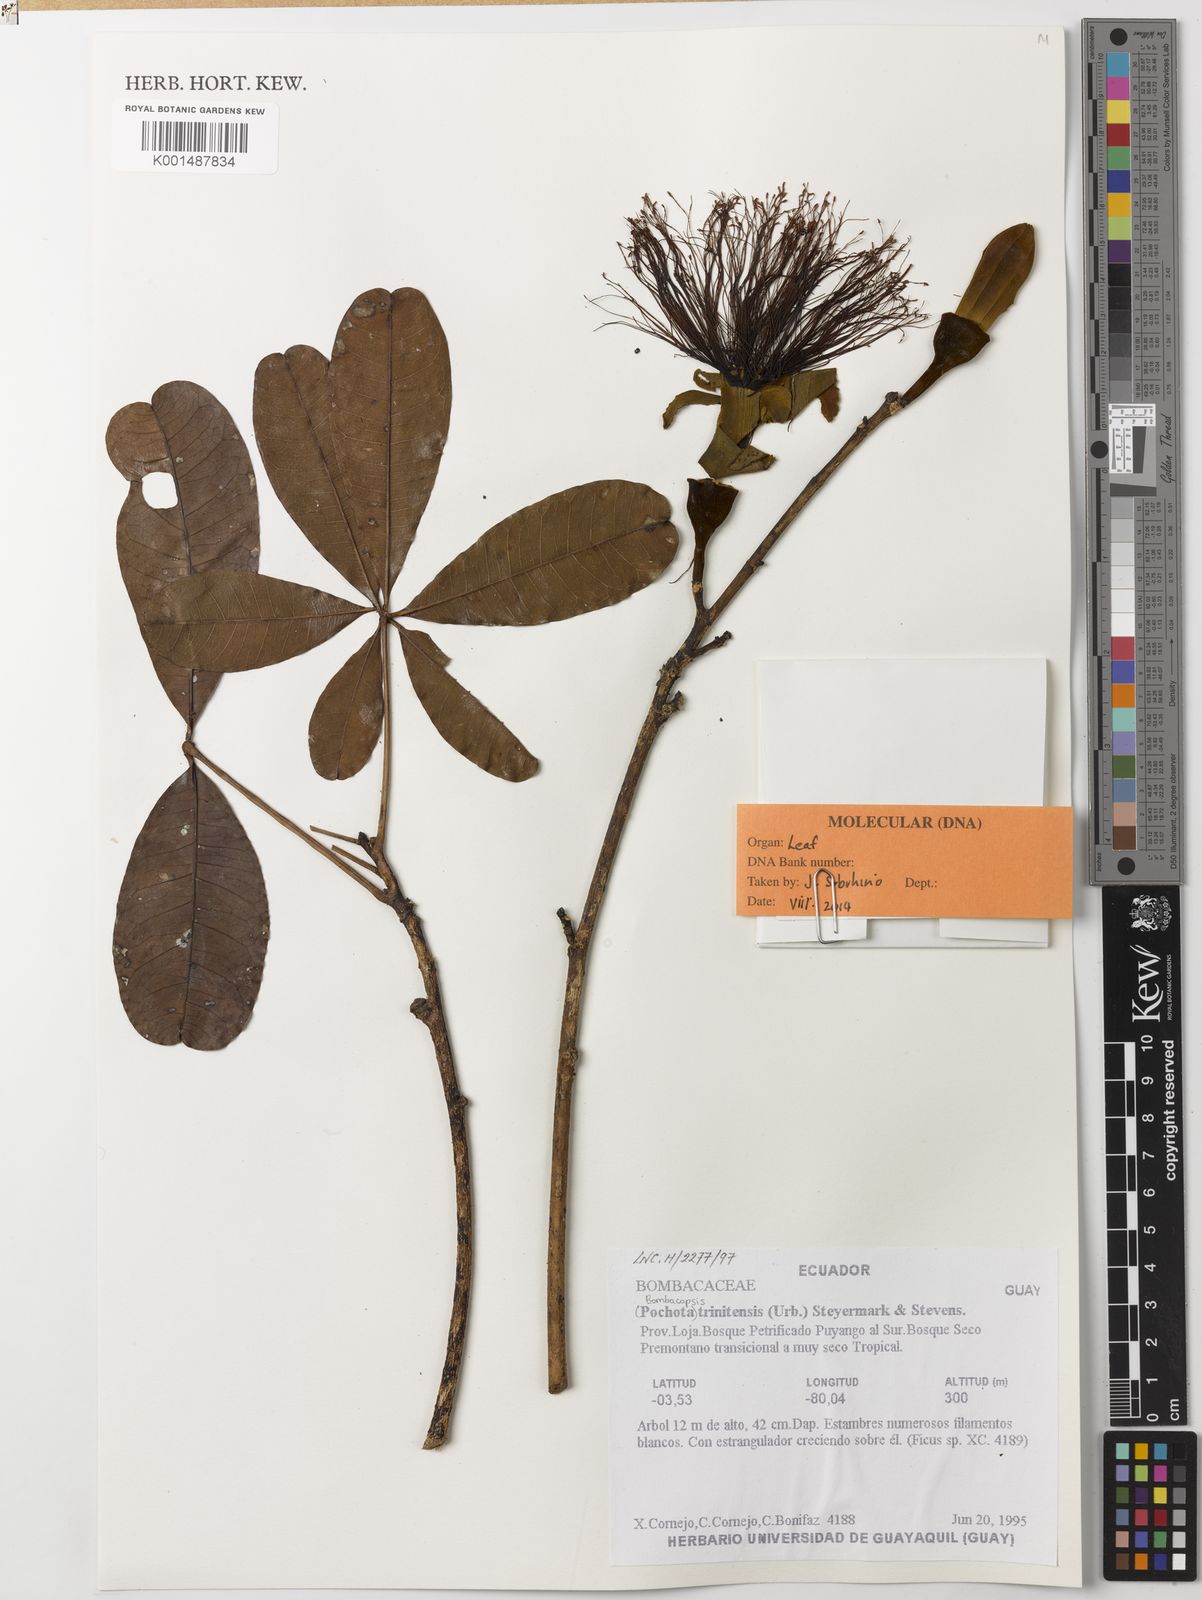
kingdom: Plantae
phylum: Tracheophyta
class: Magnoliopsida
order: Malvales
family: Malvaceae
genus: Pachira
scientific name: Pachira trinitensis
